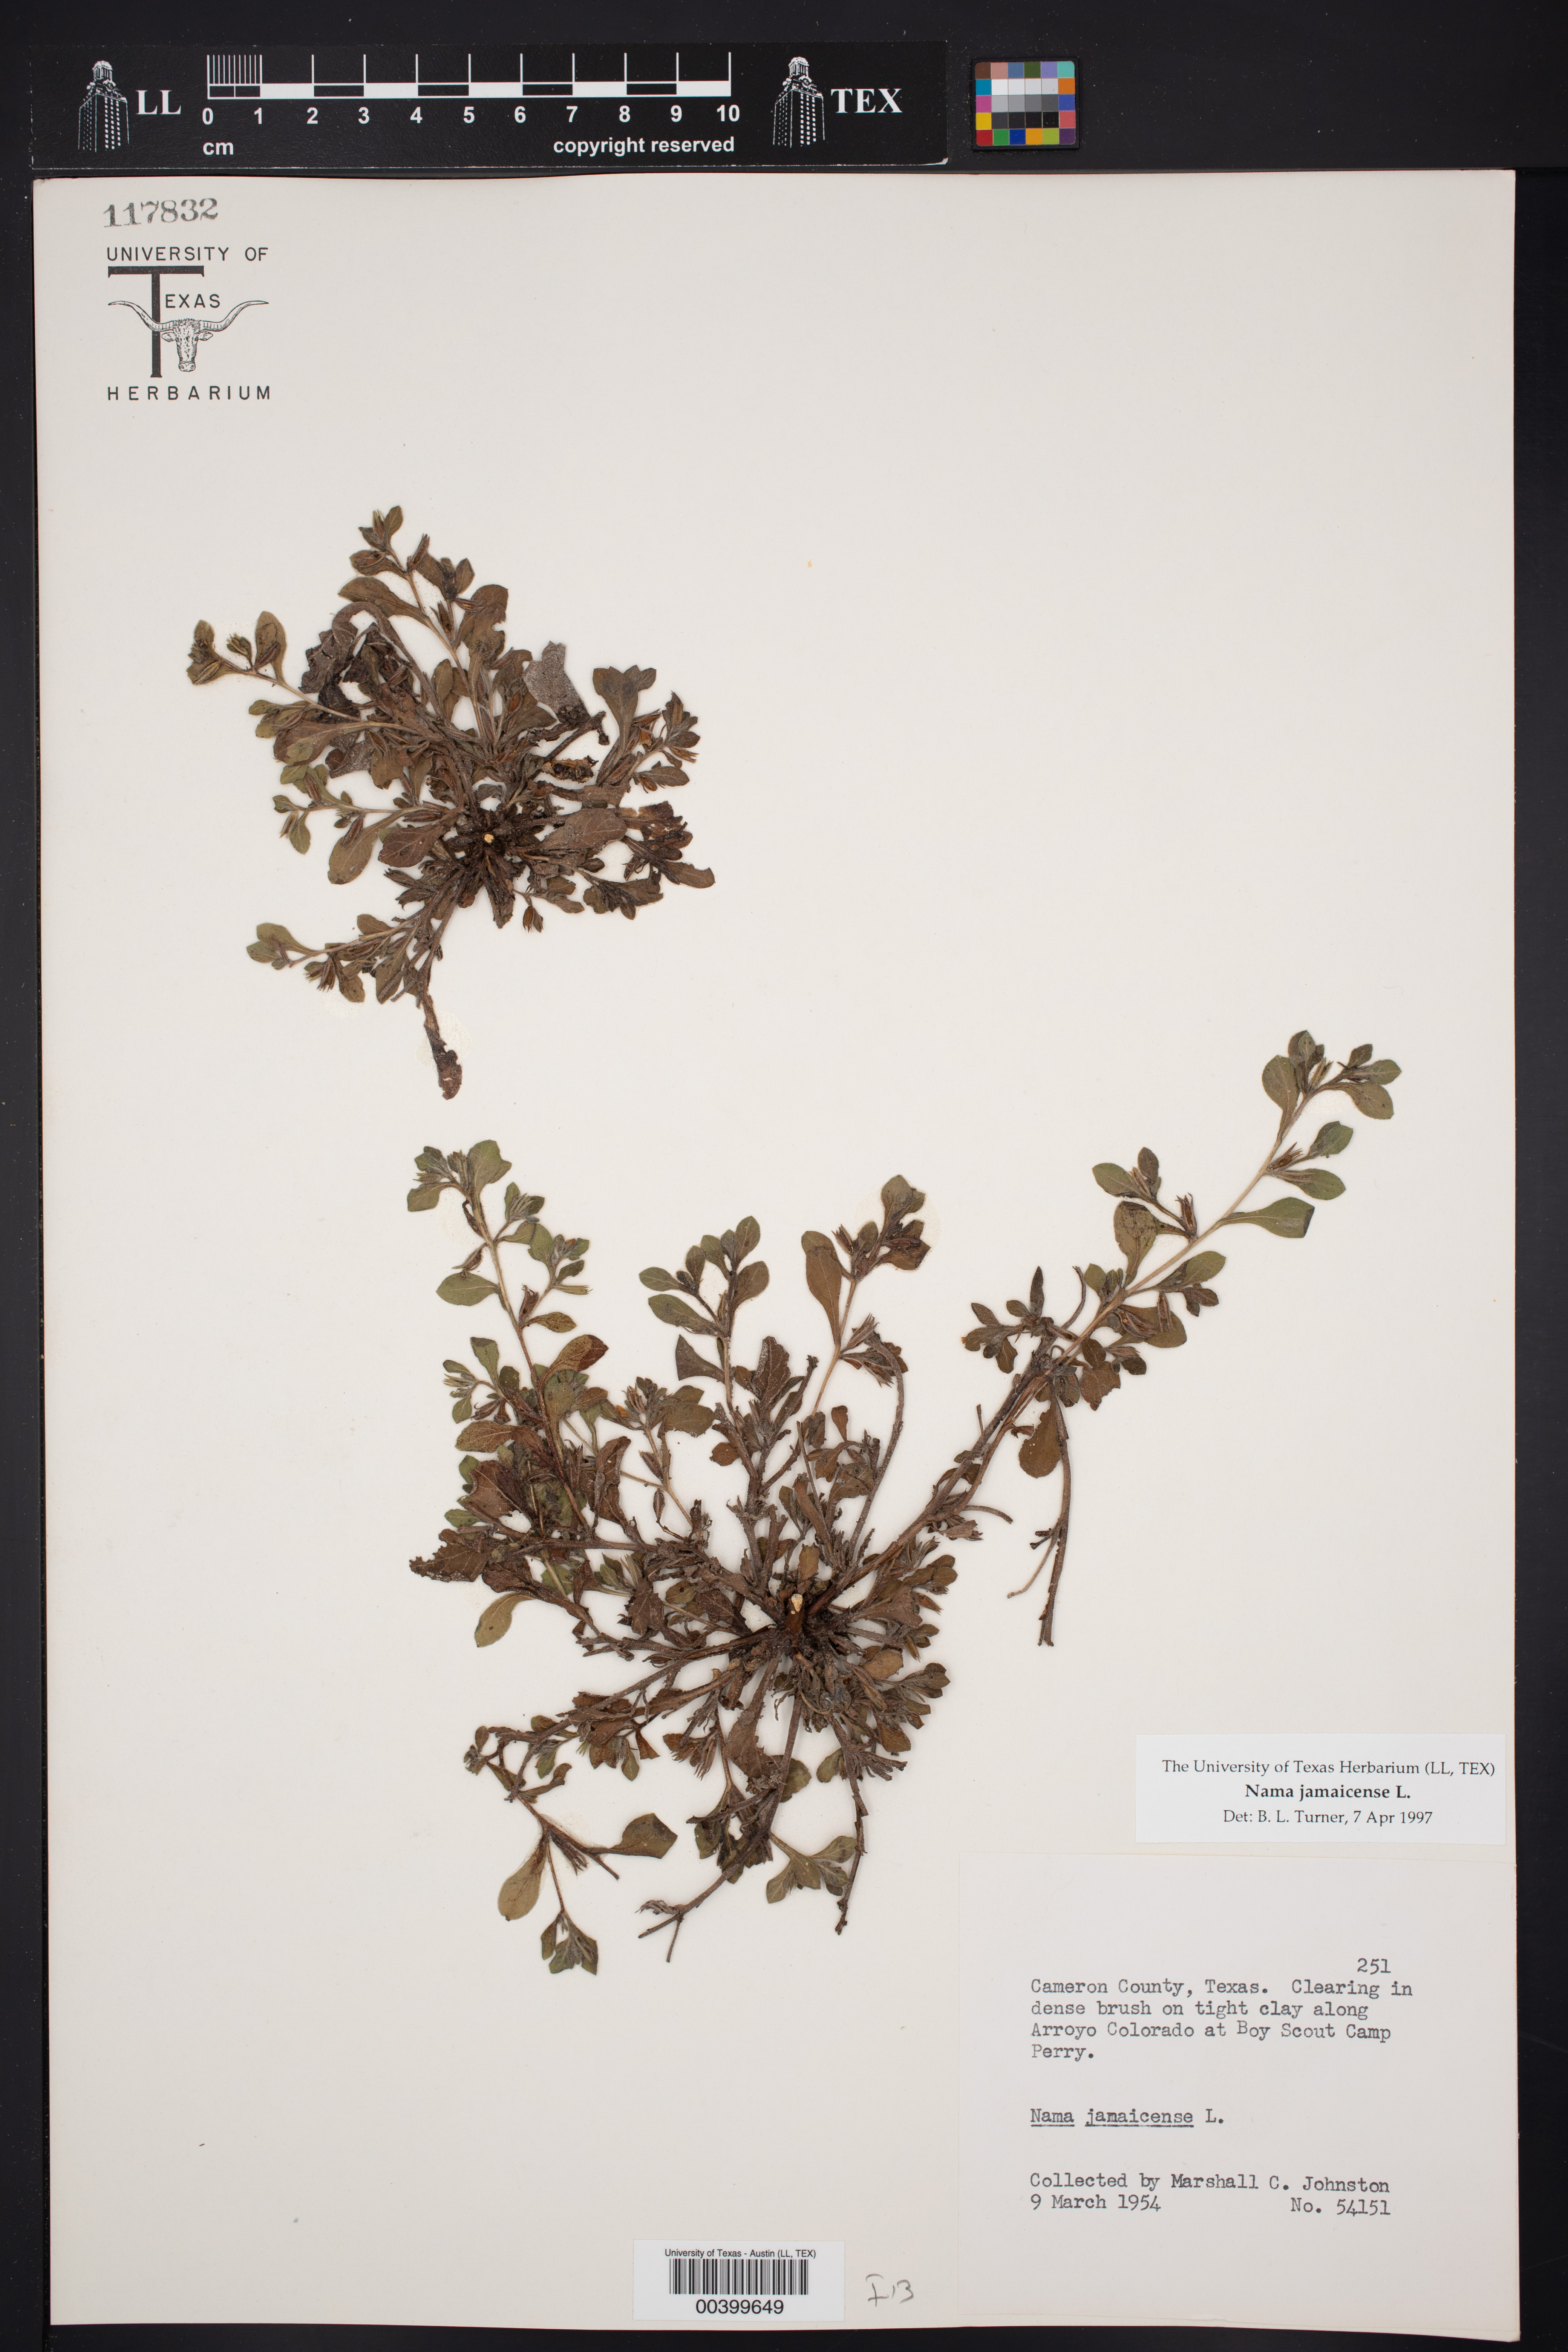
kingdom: Plantae
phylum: Tracheophyta
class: Magnoliopsida
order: Boraginales
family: Namaceae
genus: Nama
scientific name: Nama jamaicensis
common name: Jamaicanweed
